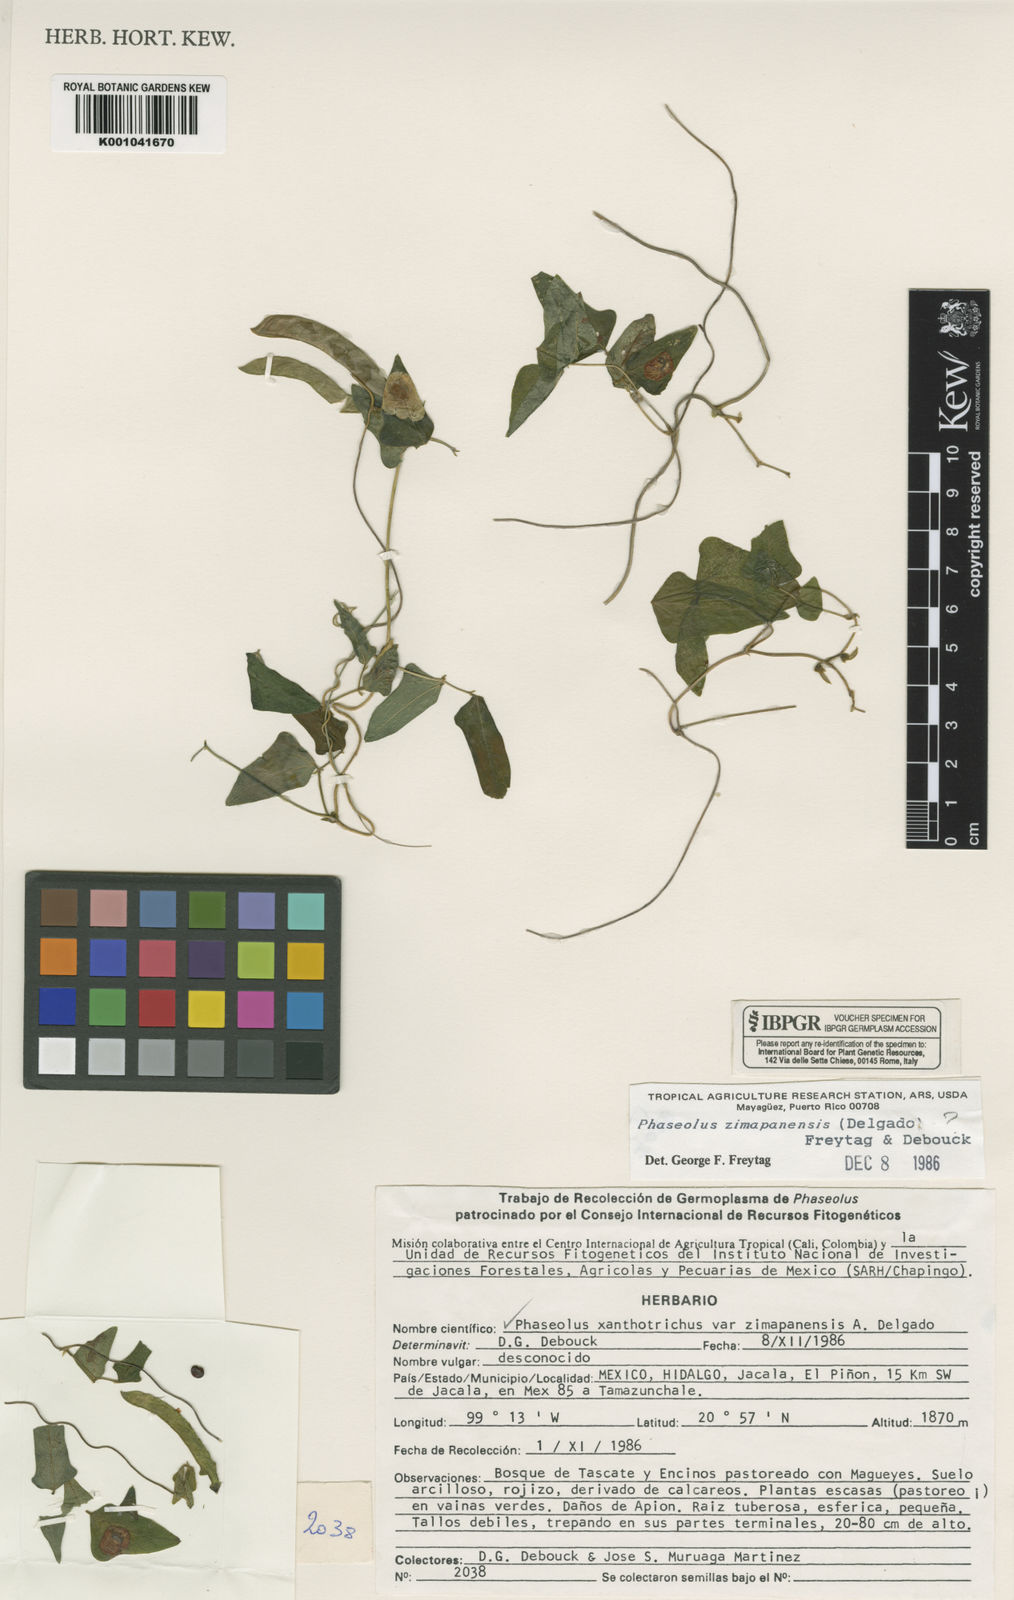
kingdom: Plantae
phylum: Tracheophyta
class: Magnoliopsida
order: Fabales
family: Fabaceae
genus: Phaseolus
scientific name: Phaseolus xanthotrichus
